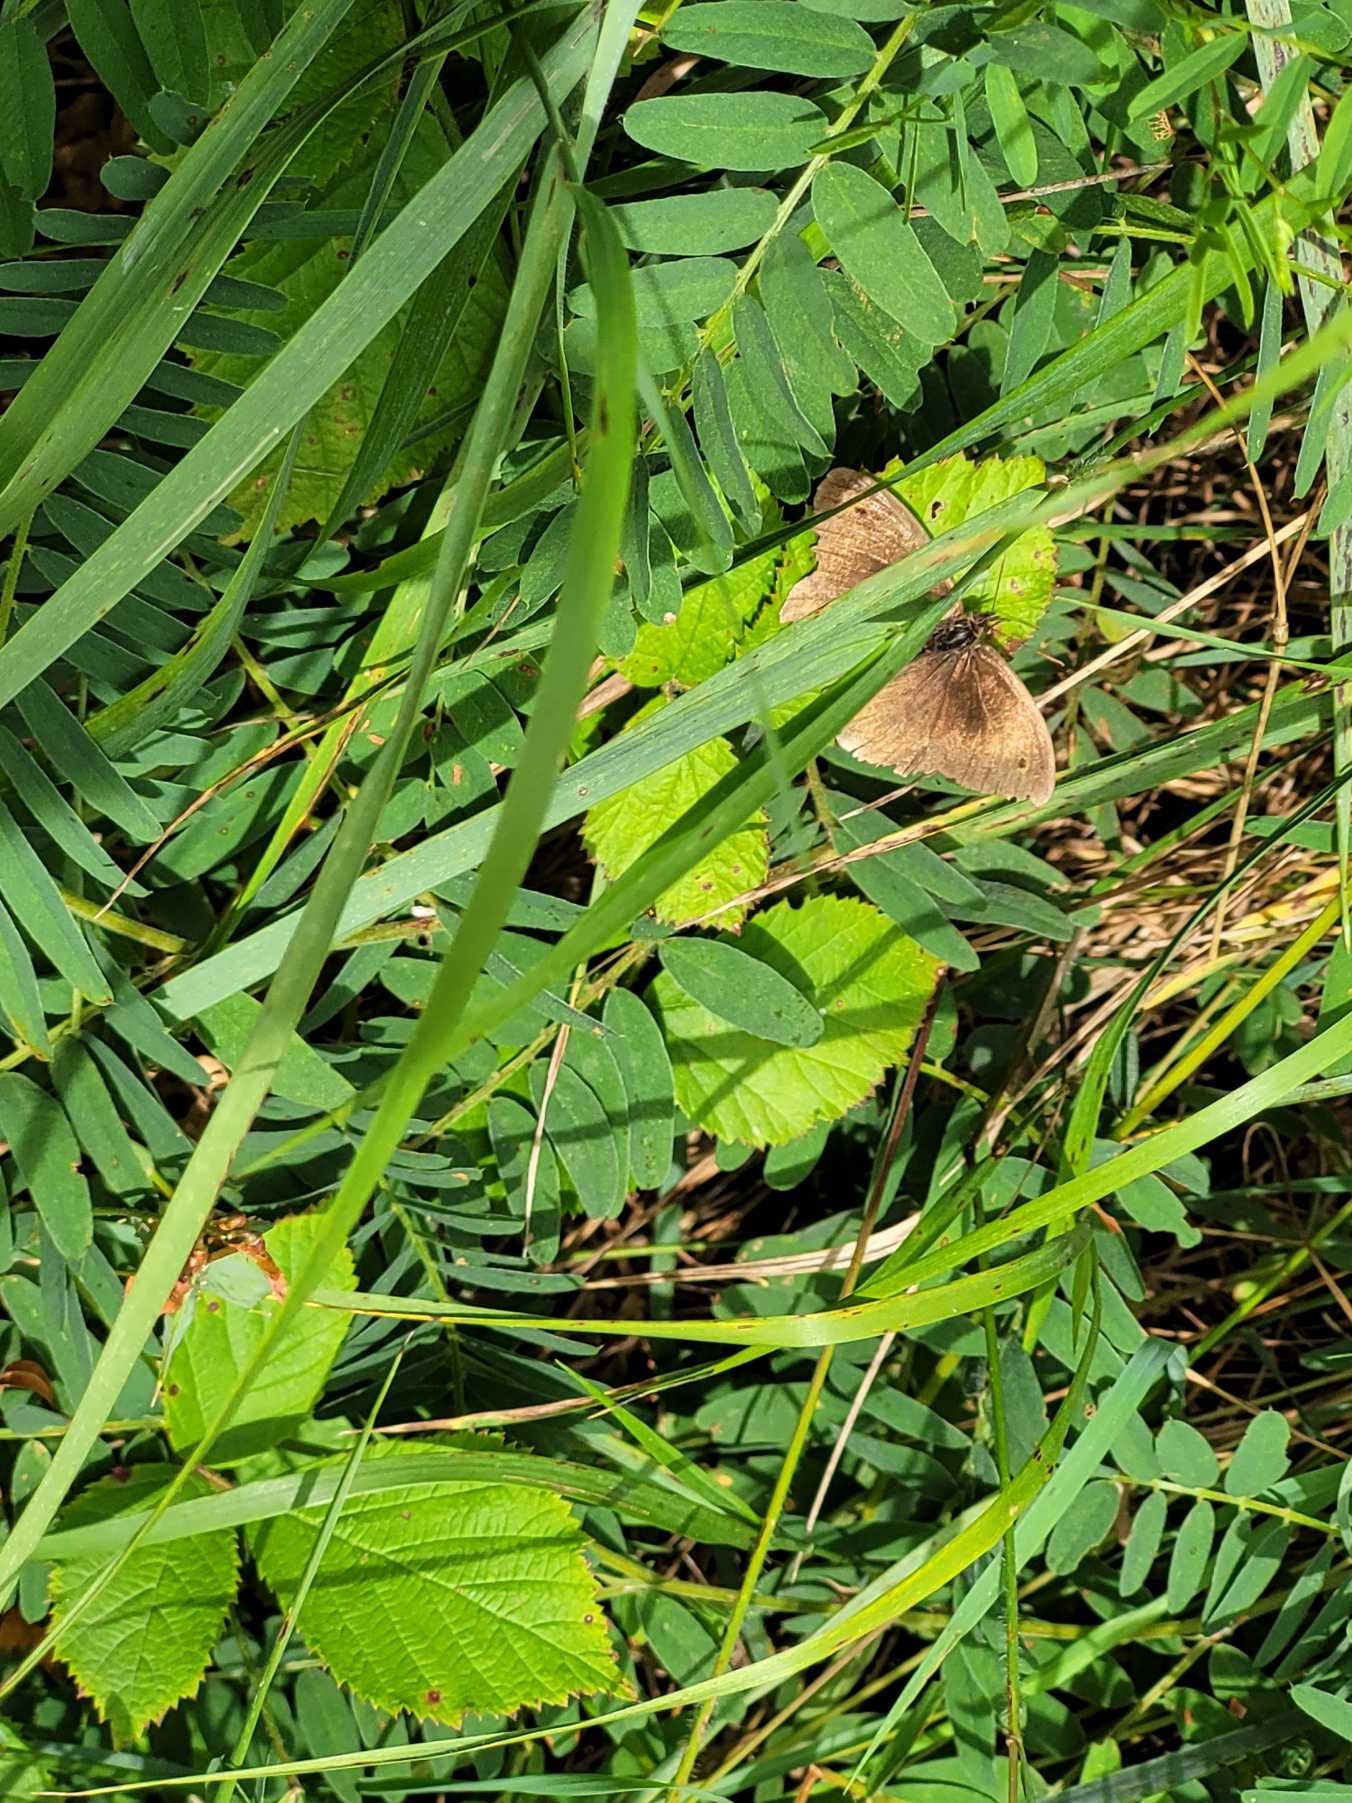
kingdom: Animalia
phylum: Arthropoda
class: Insecta
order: Lepidoptera
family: Nymphalidae
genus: Maniola
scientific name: Maniola jurtina
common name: Græsrandøje
